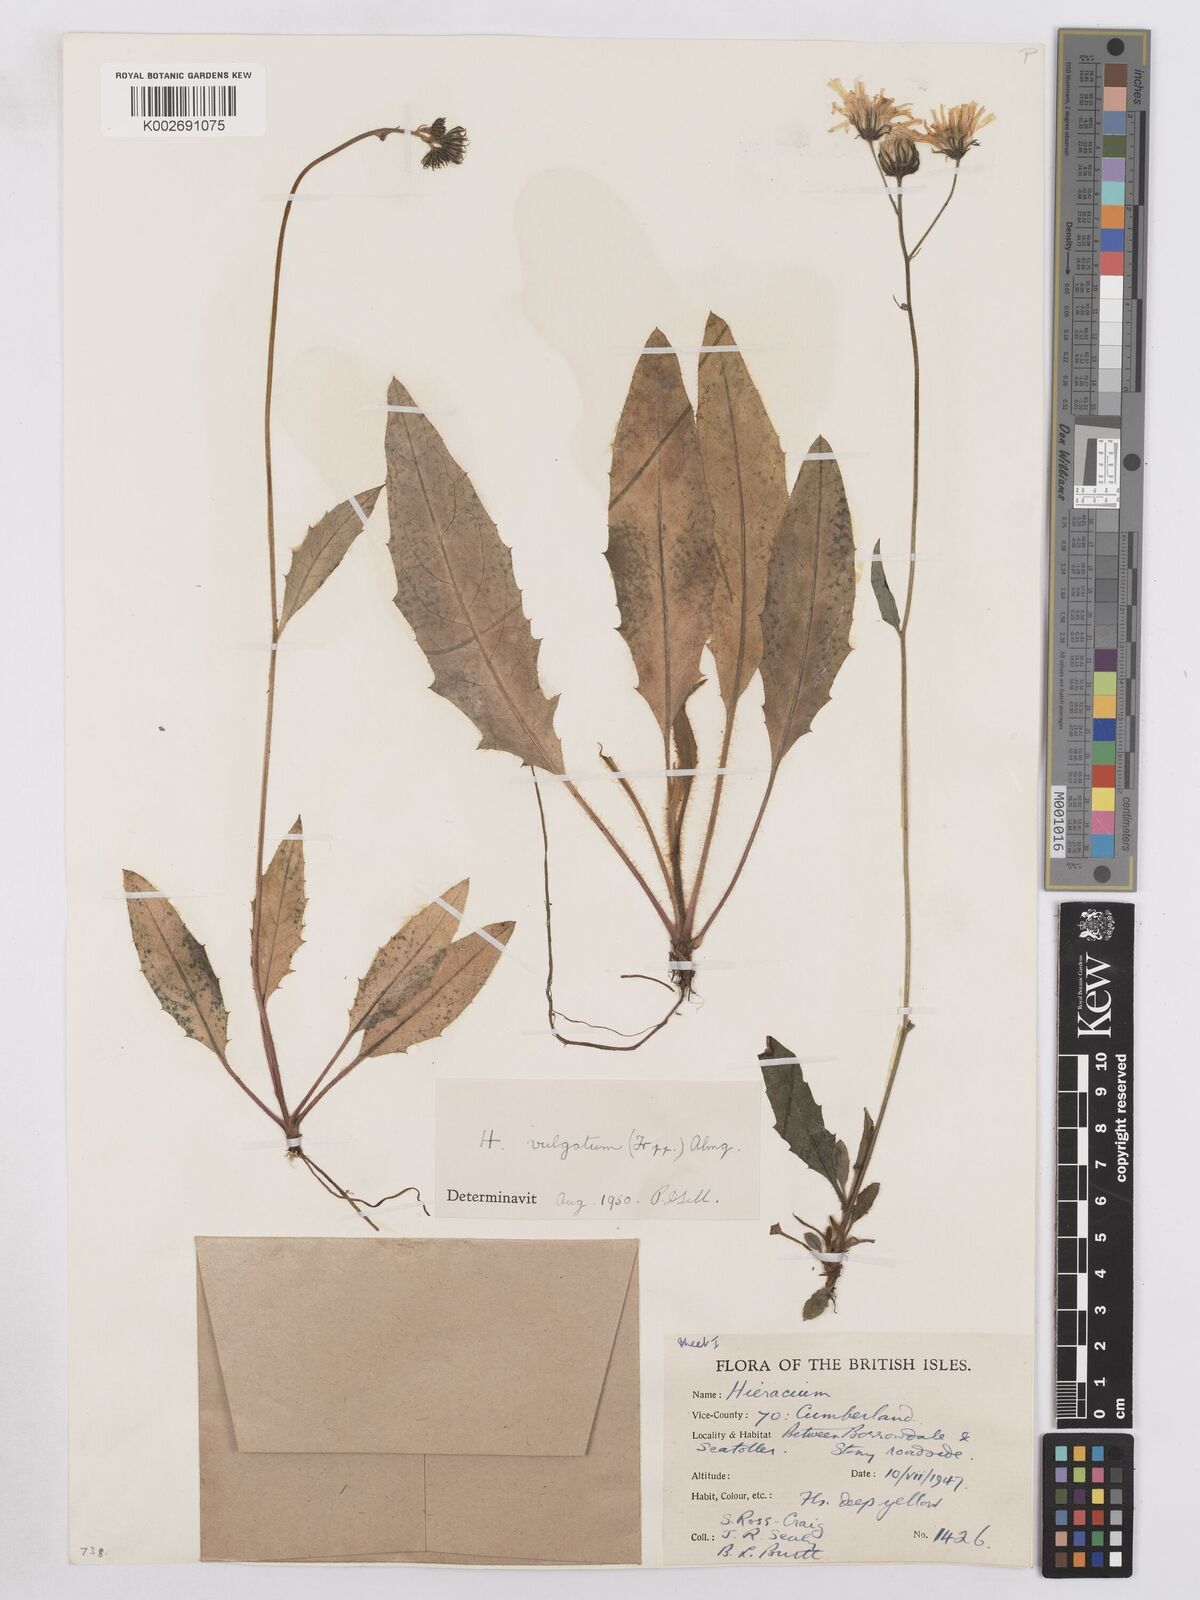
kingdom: Plantae
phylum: Tracheophyta
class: Magnoliopsida
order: Asterales
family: Asteraceae
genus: Hieracium
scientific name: Hieracium lachenalii
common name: Common hawkweed
